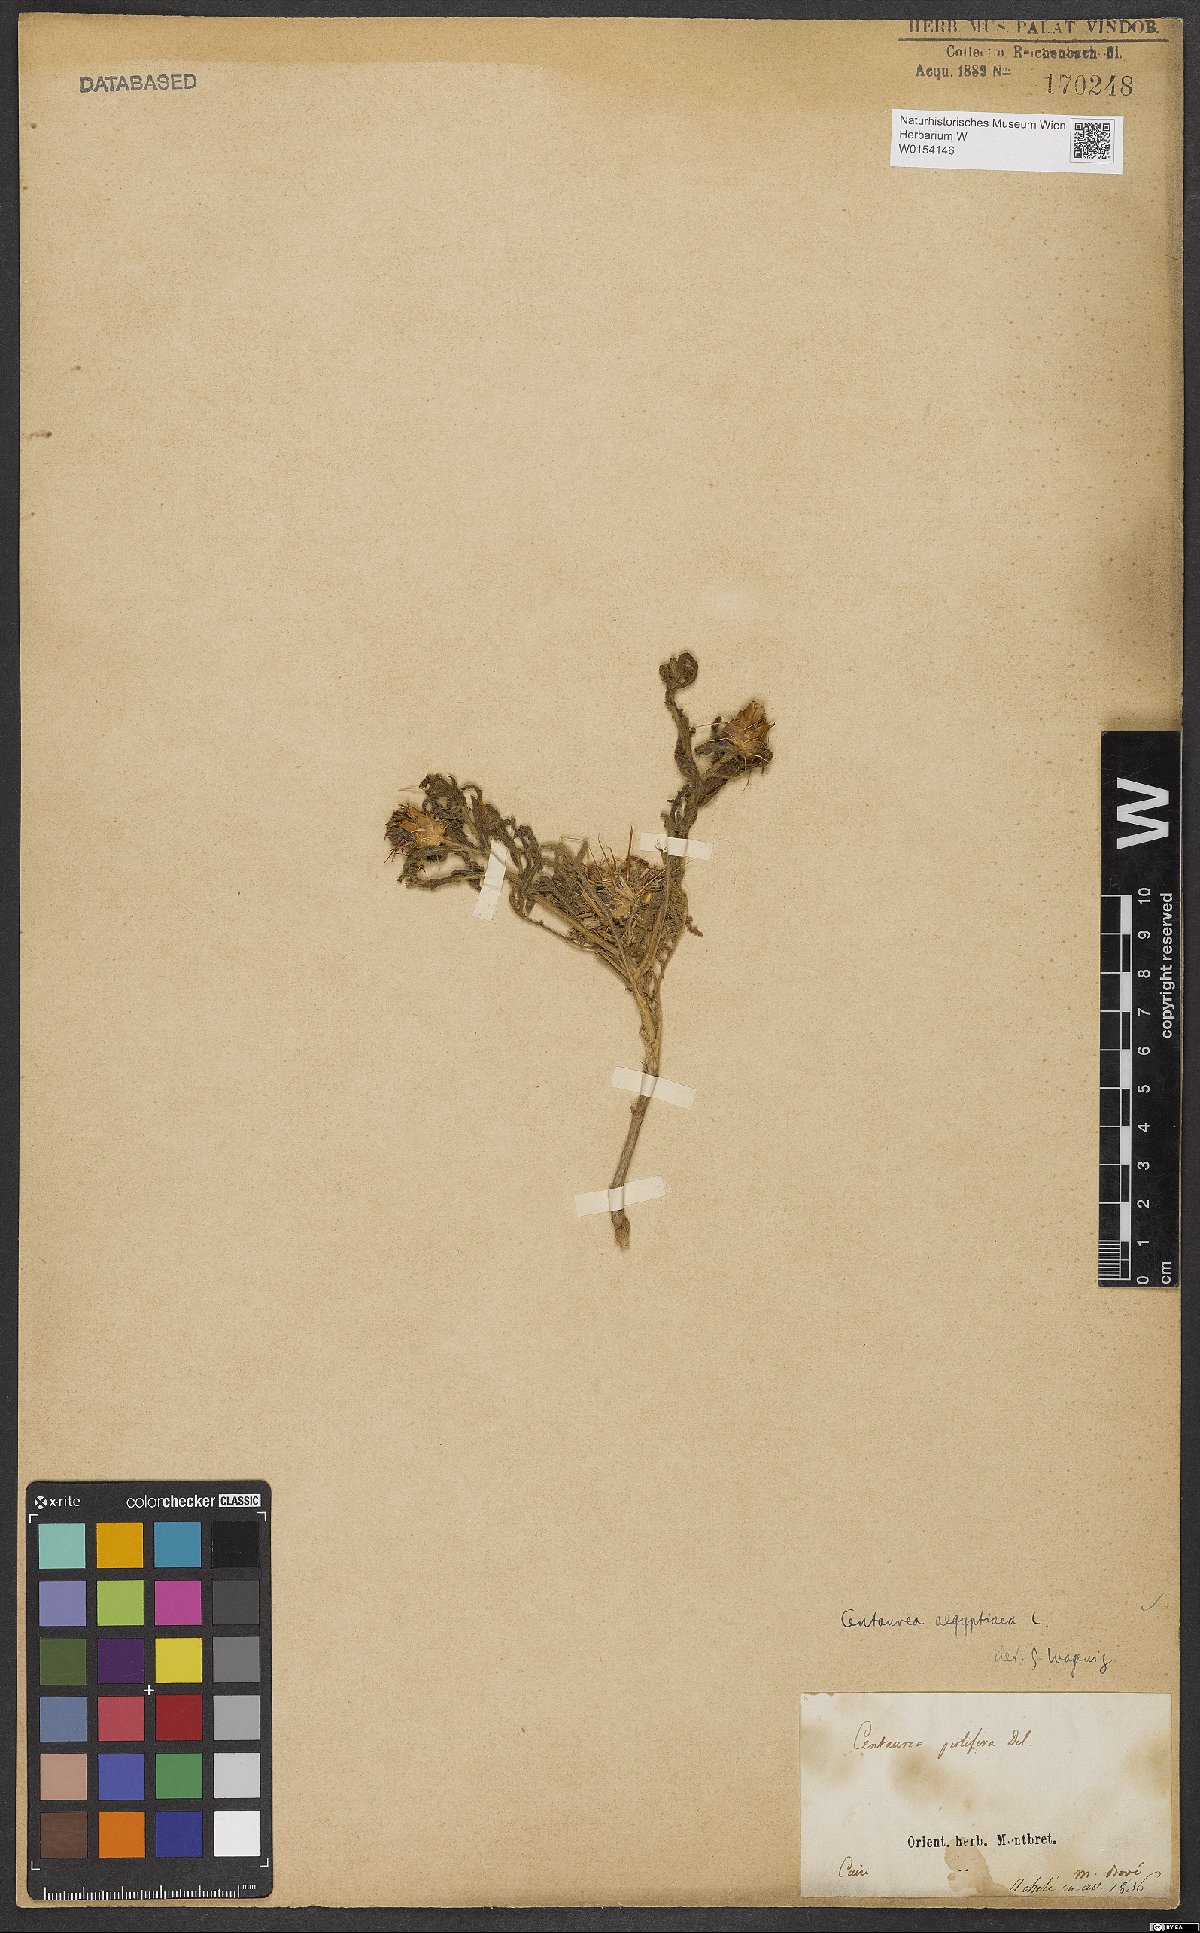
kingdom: Plantae
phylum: Tracheophyta
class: Magnoliopsida
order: Asterales
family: Asteraceae
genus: Centaurea
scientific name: Centaurea aegyptiaca
